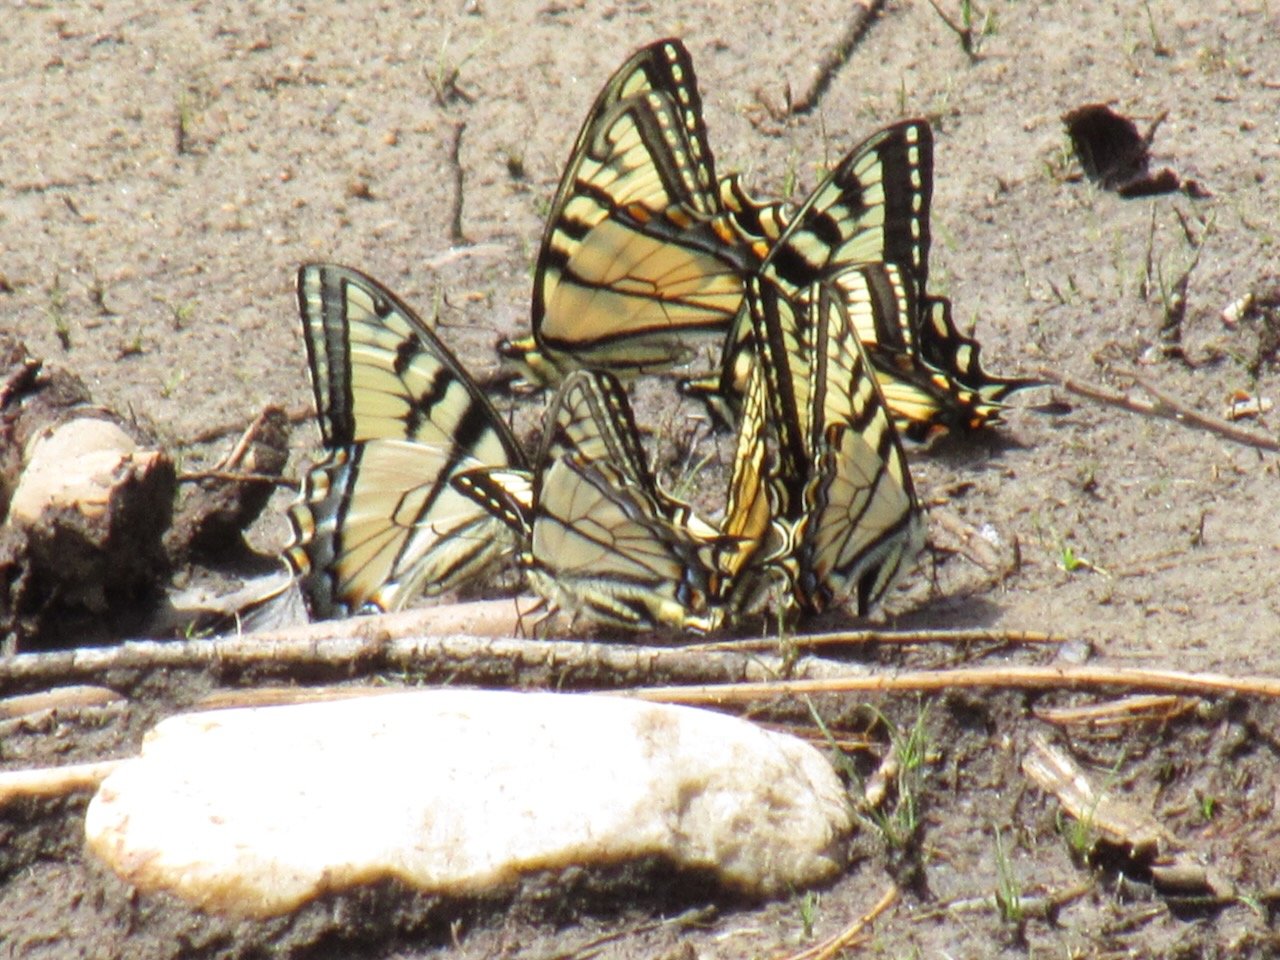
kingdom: Animalia
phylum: Arthropoda
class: Insecta
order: Lepidoptera
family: Papilionidae
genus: Pterourus
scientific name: Pterourus canadensis
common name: Canadian Tiger Swallowtail
